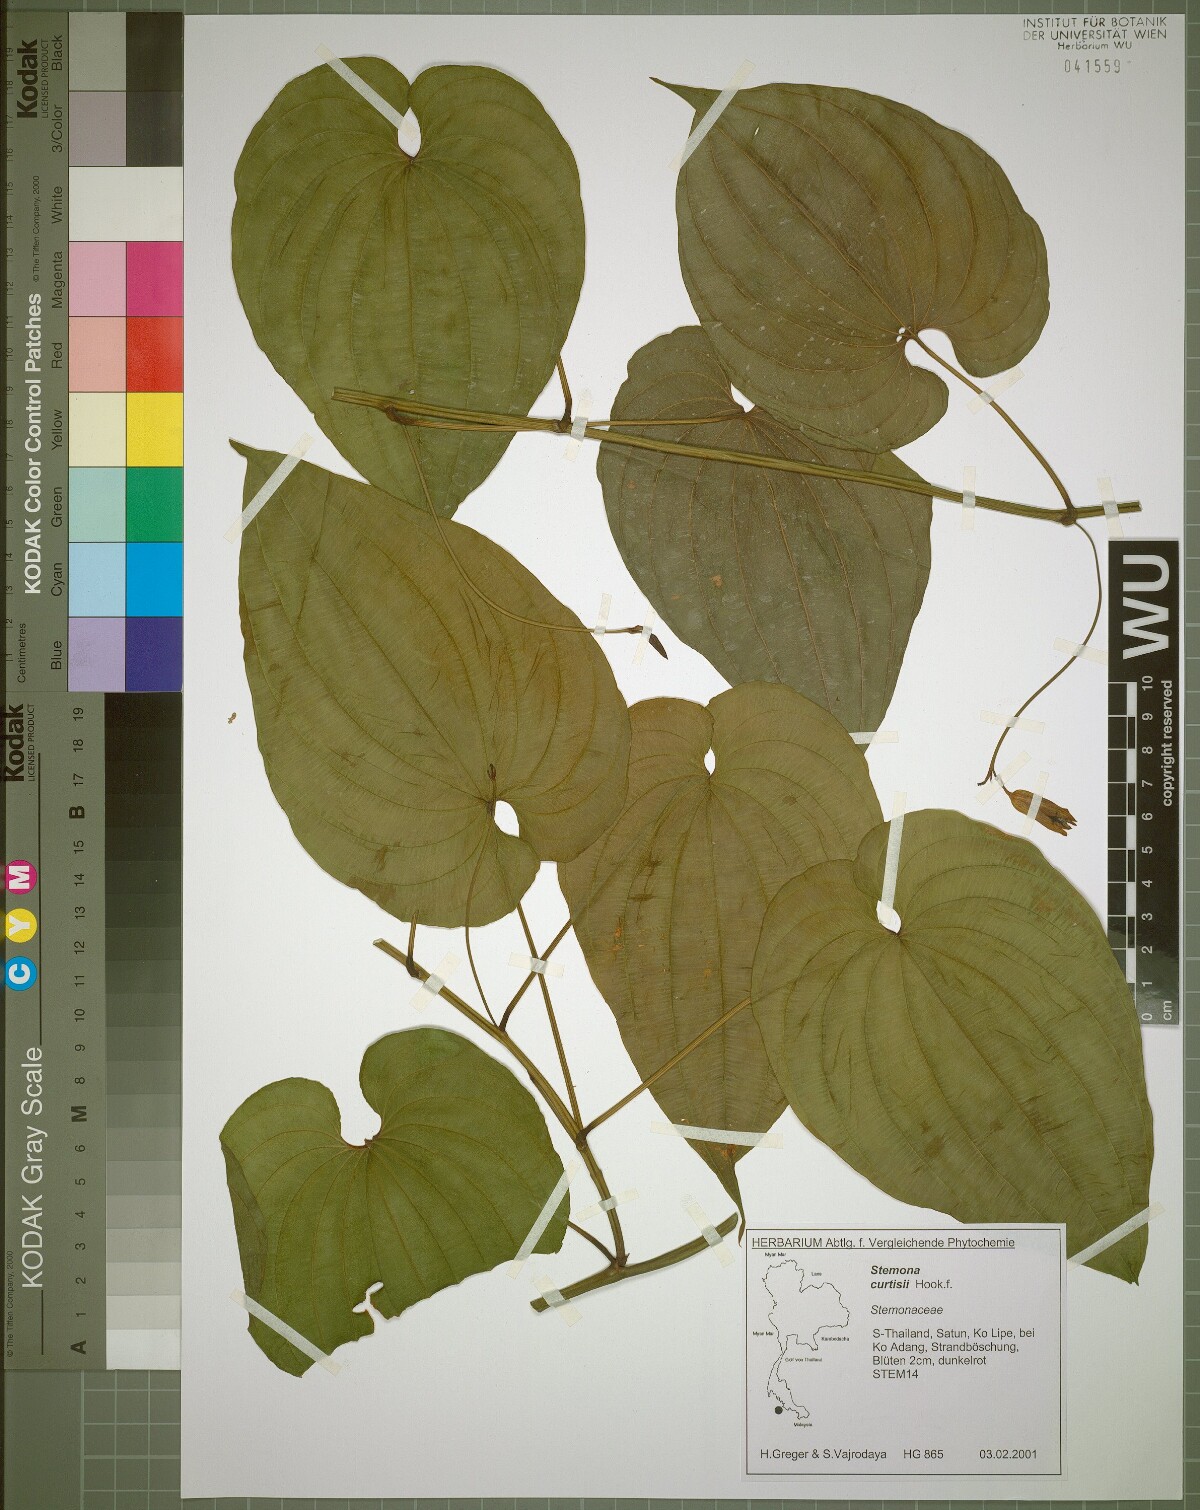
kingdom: Plantae
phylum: Tracheophyta
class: Liliopsida
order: Pandanales
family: Stemonaceae
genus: Stemona
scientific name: Stemona curtisii
